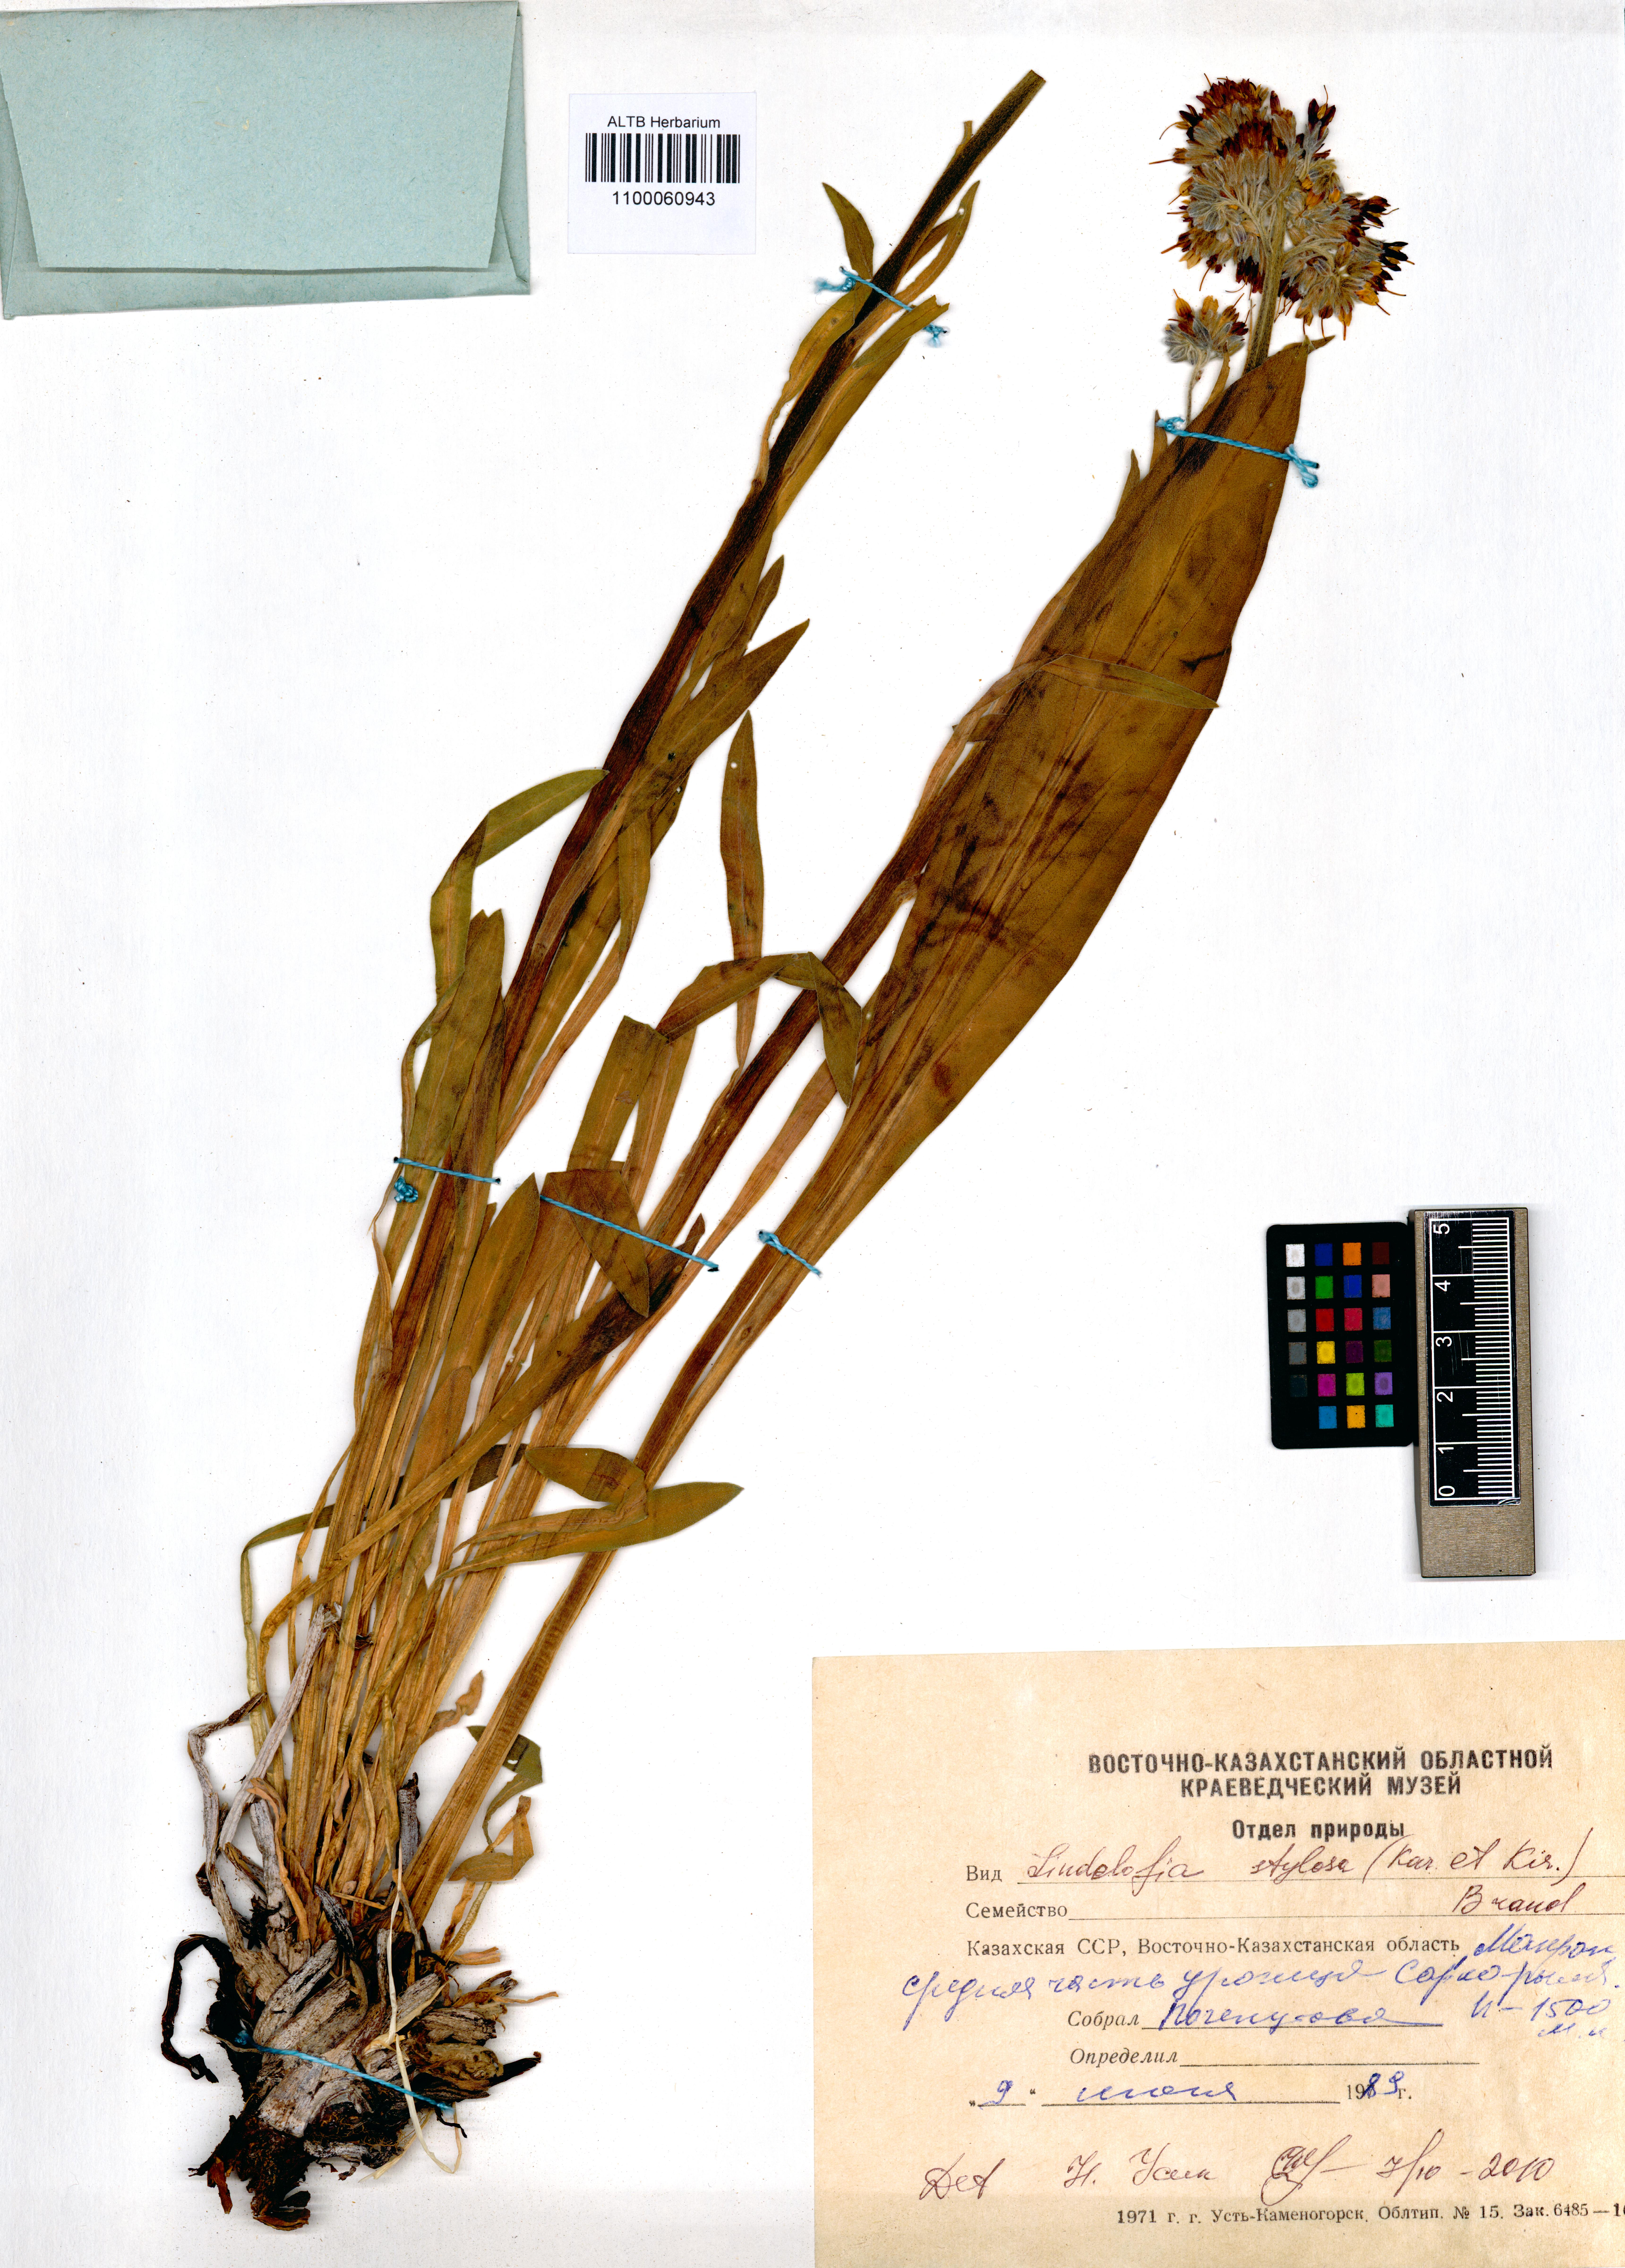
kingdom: Plantae
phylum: Tracheophyta
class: Magnoliopsida
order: Boraginales
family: Boraginaceae
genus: Lindelofia
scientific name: Lindelofia stylosa
